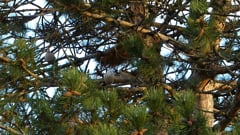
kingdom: Animalia
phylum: Chordata
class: Aves
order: Columbiformes
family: Columbidae
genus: Streptopelia
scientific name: Streptopelia decaocto
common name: Eurasian collared dove
